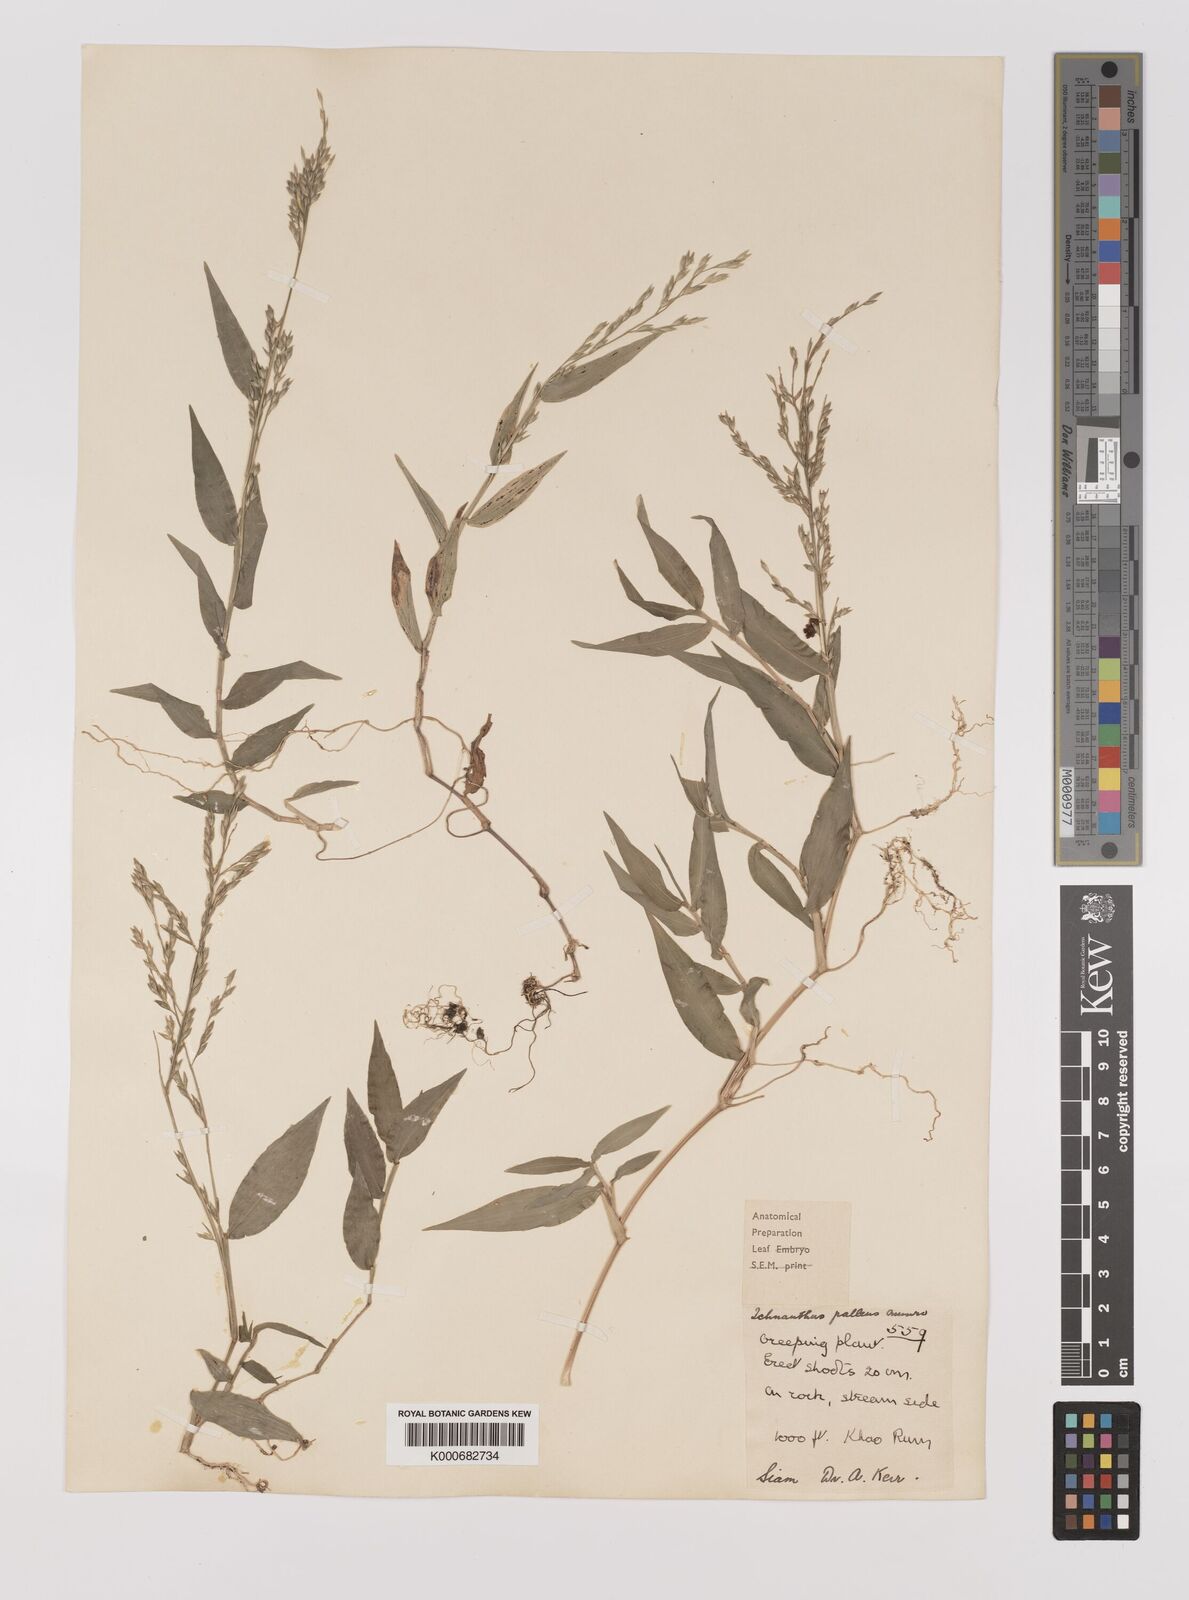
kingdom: Plantae
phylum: Tracheophyta
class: Liliopsida
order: Poales
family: Poaceae
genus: Ichnanthus
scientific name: Ichnanthus pallens
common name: Water grass
